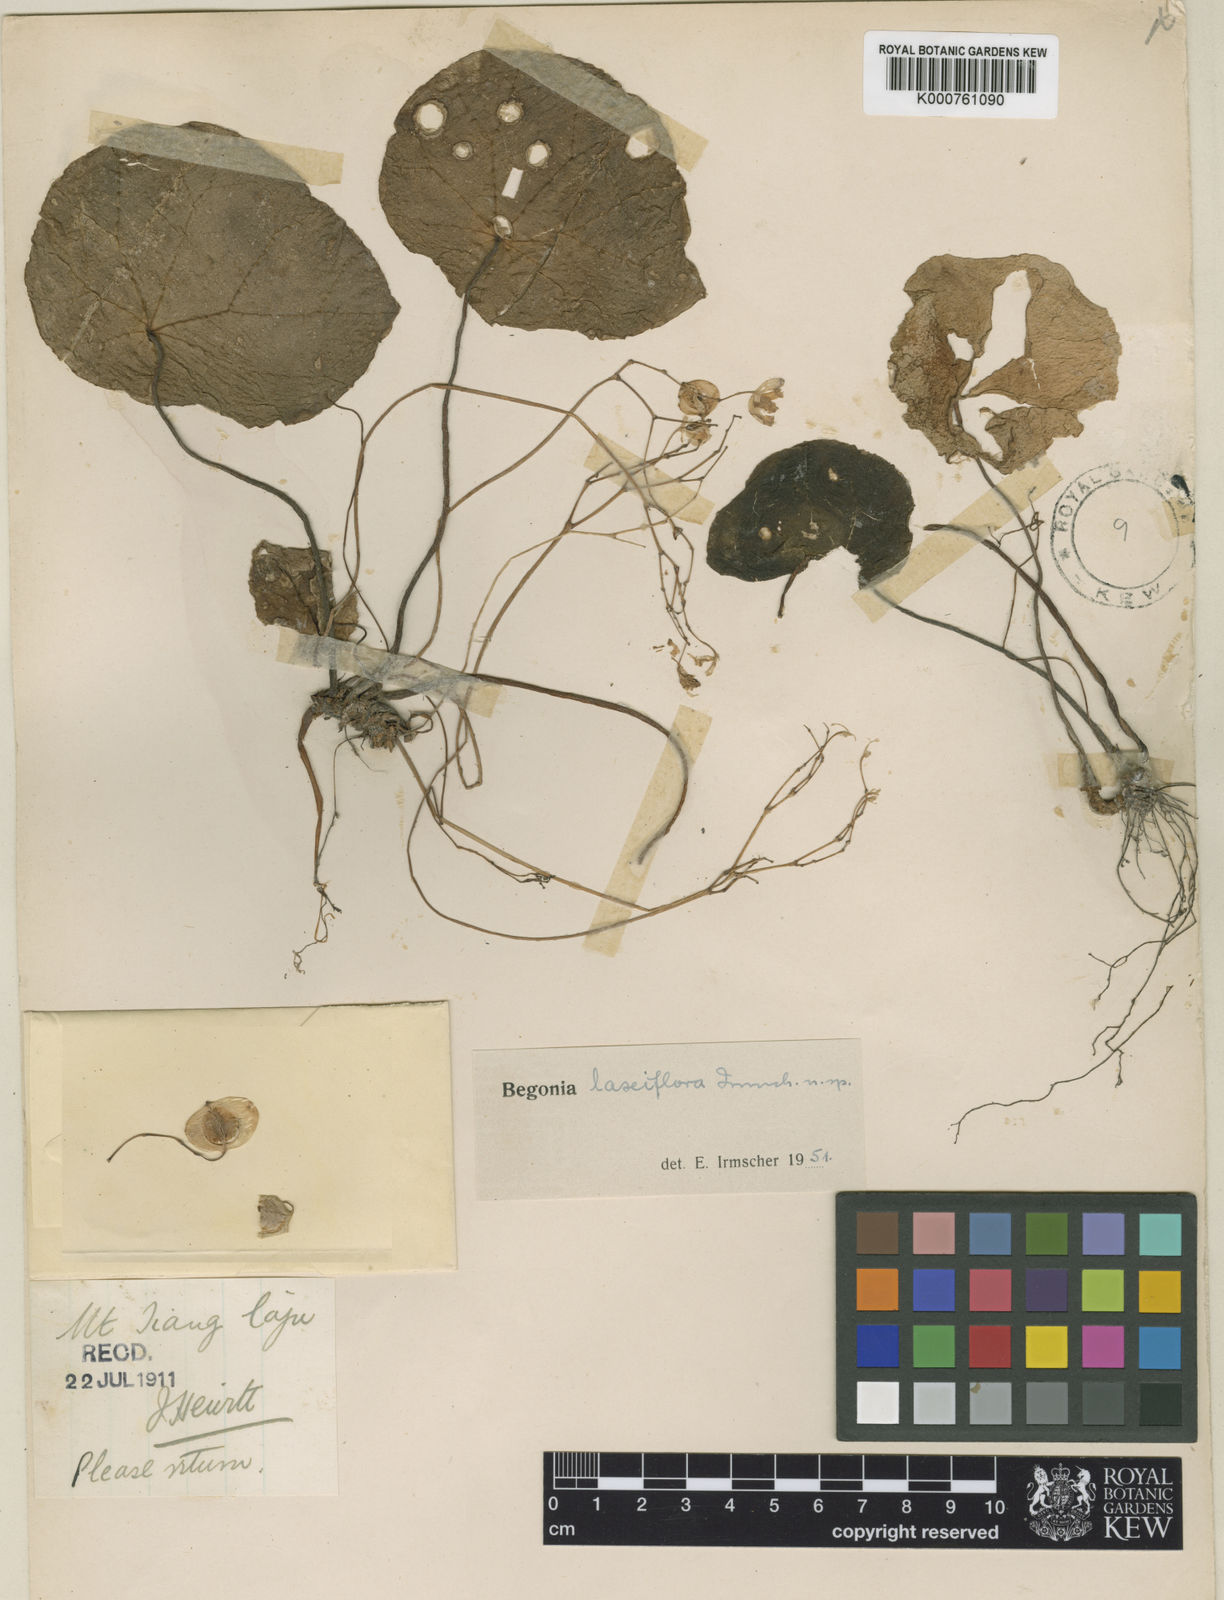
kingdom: Plantae
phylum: Tracheophyta
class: Magnoliopsida
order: Cucurbitales
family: Begoniaceae
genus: Begonia
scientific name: Begonia
